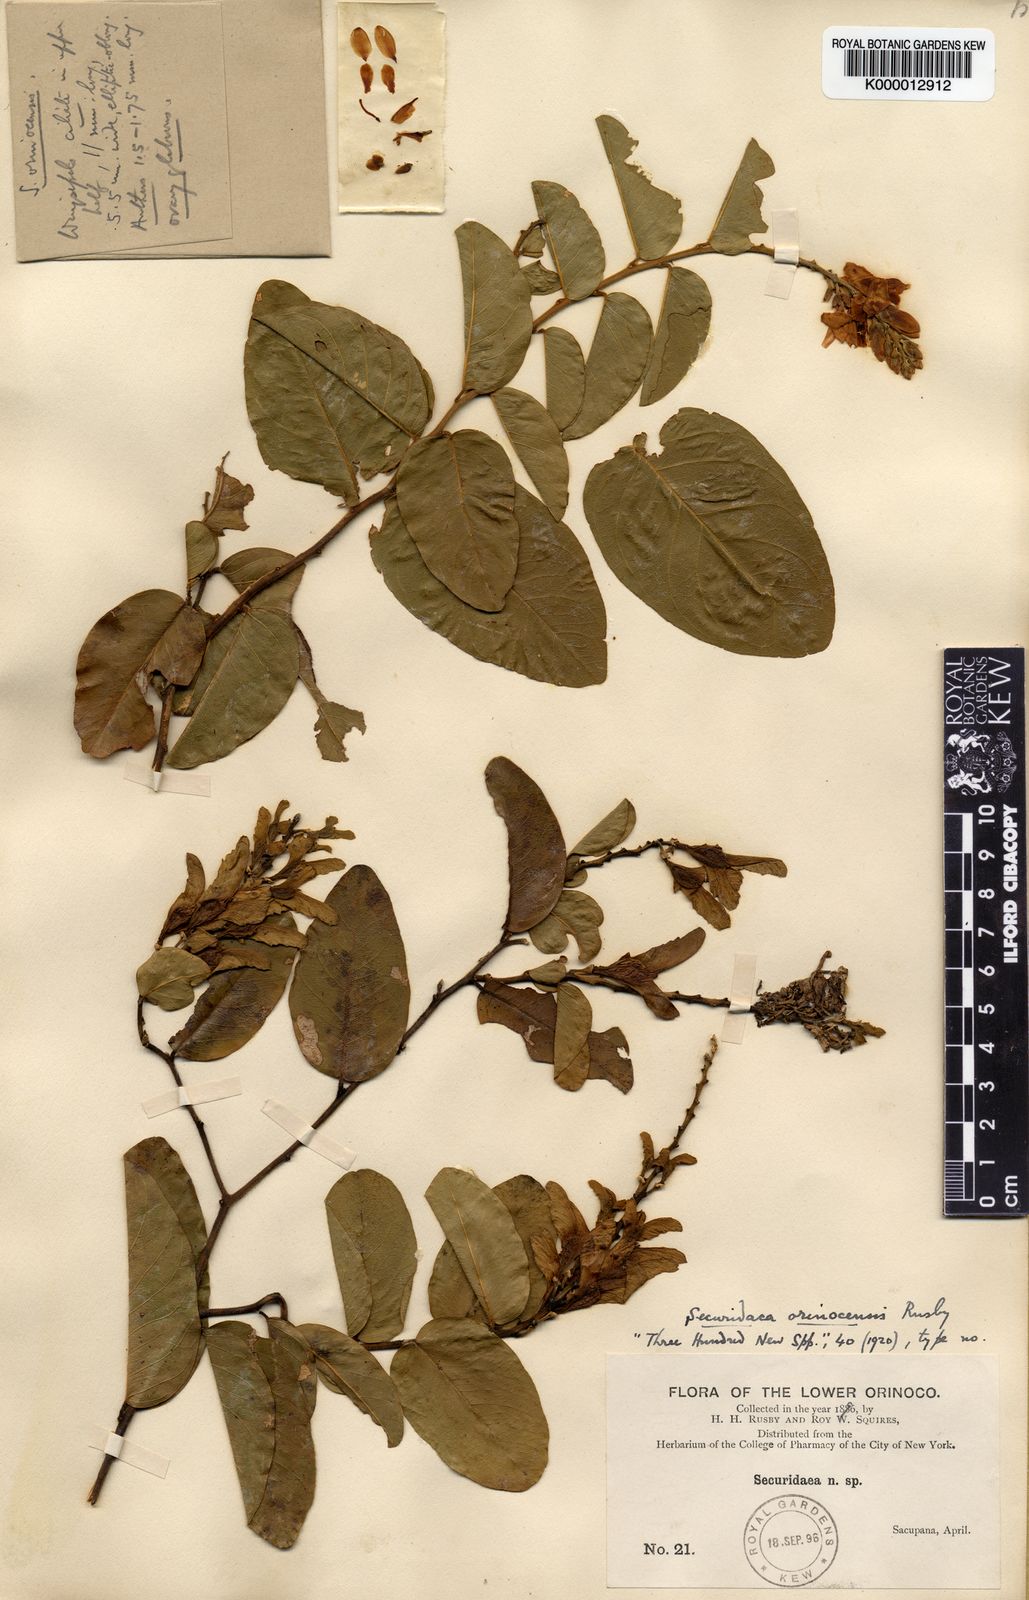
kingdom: Plantae
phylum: Tracheophyta
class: Magnoliopsida
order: Fabales
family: Polygalaceae
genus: Securidaca
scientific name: Securidaca bialata
